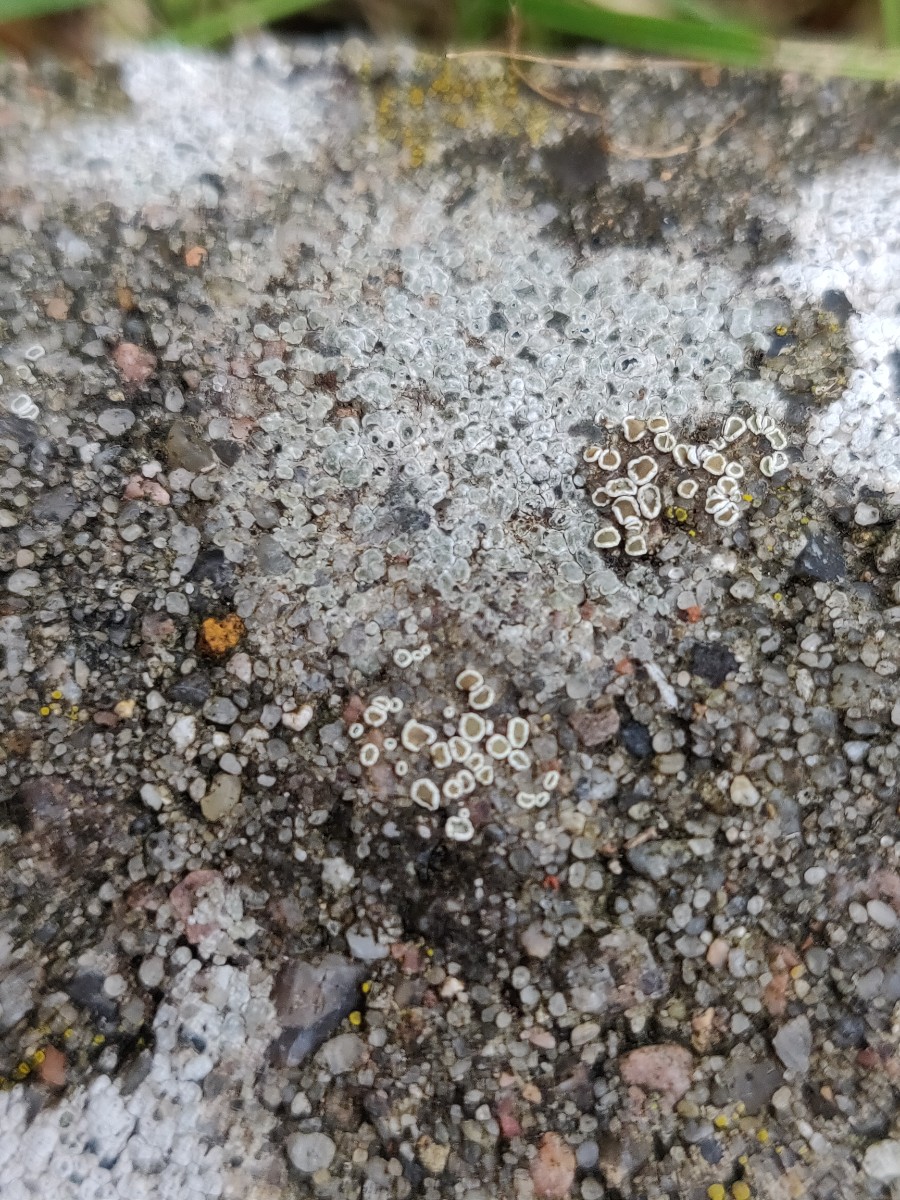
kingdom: Fungi
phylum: Ascomycota
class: Lecanoromycetes
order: Lecanorales
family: Lecanoraceae
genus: Polyozosia
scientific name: Polyozosia dispersa
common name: spredt kantskivelav
